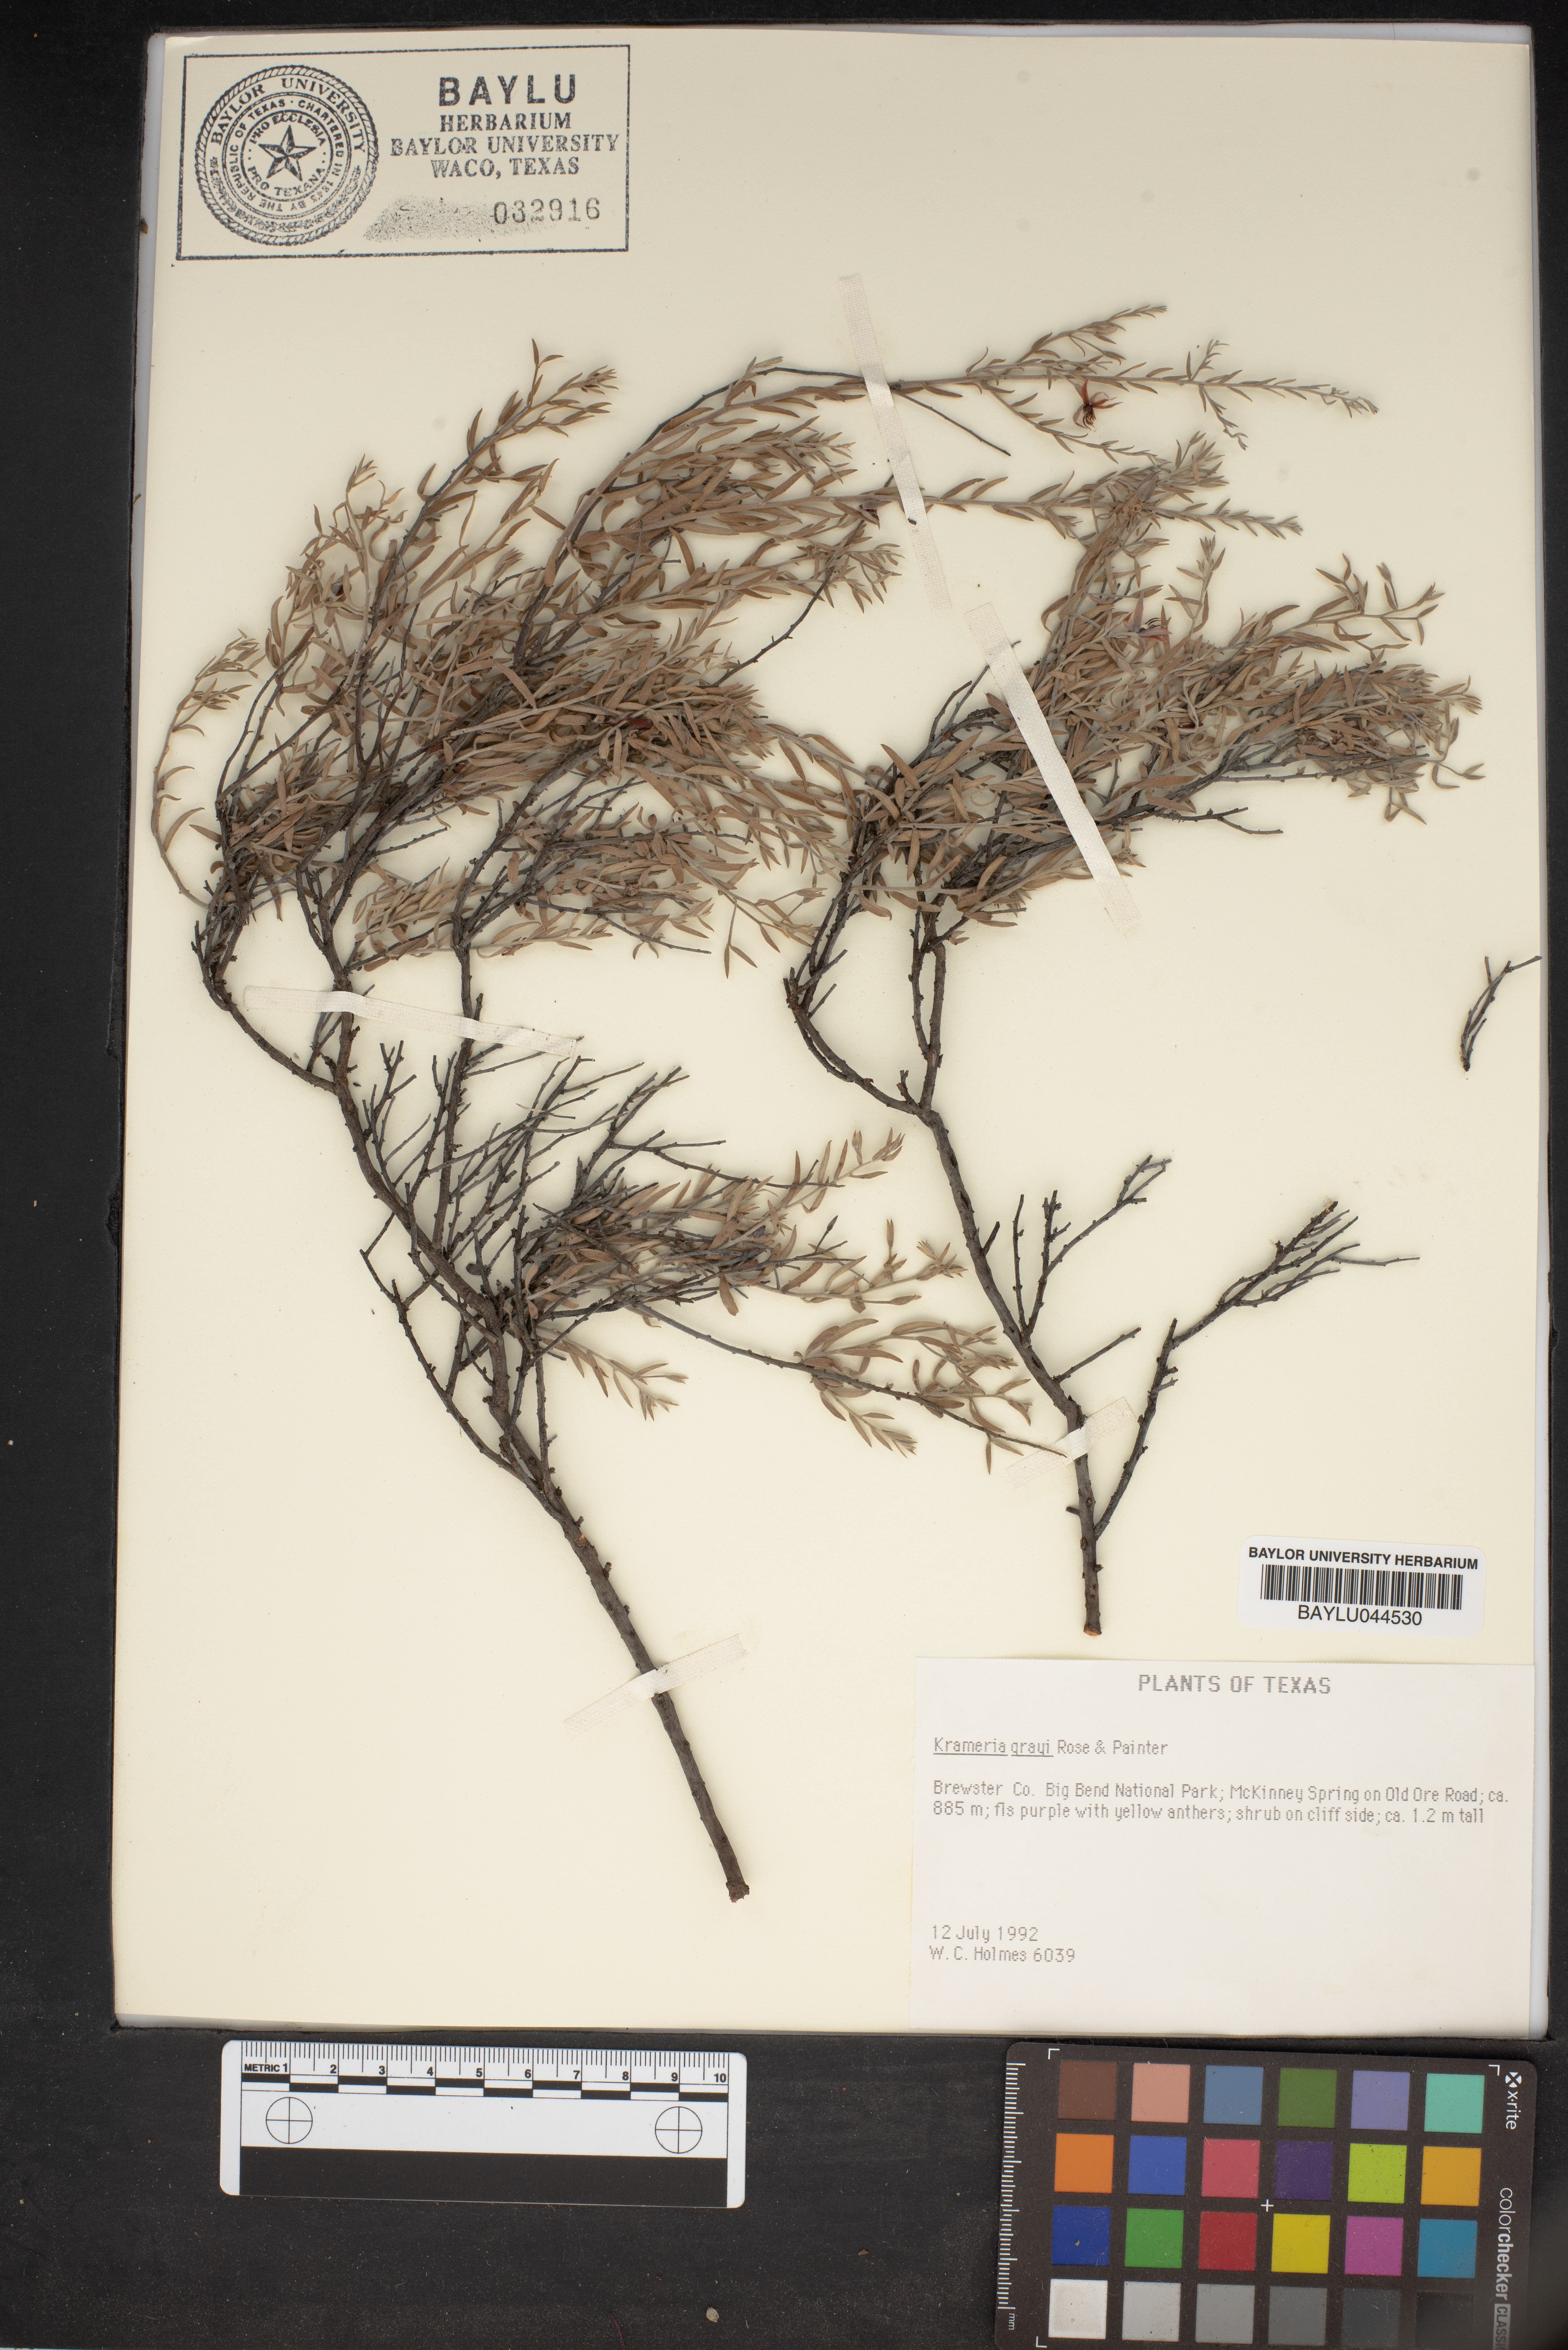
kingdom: Plantae
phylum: Tracheophyta
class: Magnoliopsida
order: Zygophyllales
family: Krameriaceae
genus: Krameria
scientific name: Krameria bicolor
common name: White ratany
